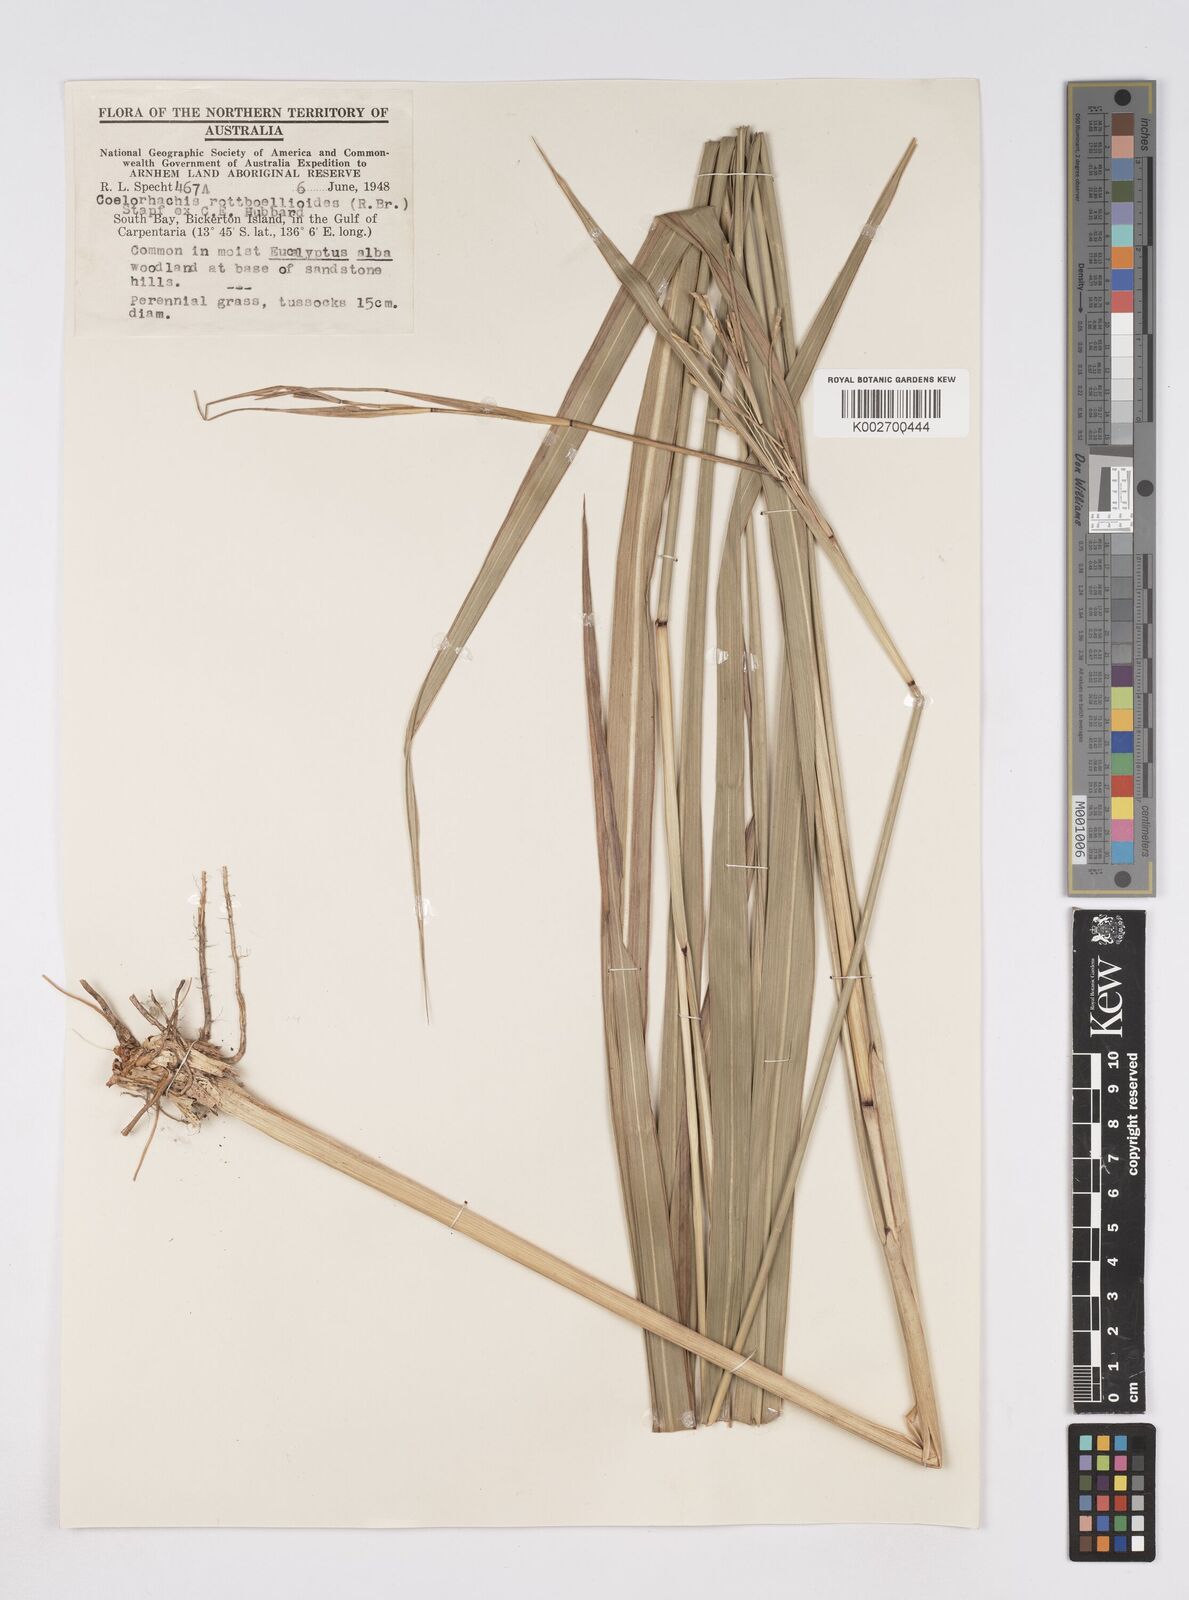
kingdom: Plantae
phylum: Tracheophyta
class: Liliopsida
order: Poales
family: Poaceae
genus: Rottboellia
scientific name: Rottboellia rottboellioides
